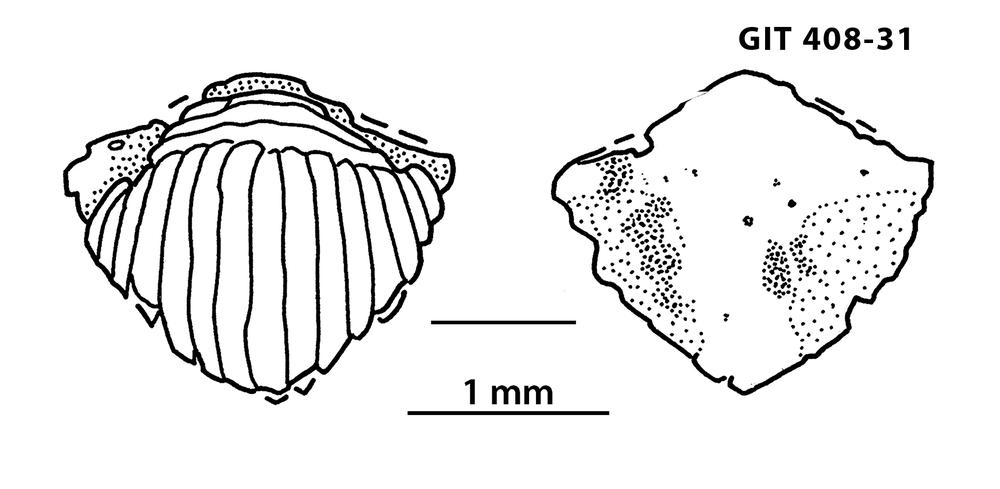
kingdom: Animalia
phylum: Chordata
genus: Archegonaspis
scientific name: Archegonaspis
